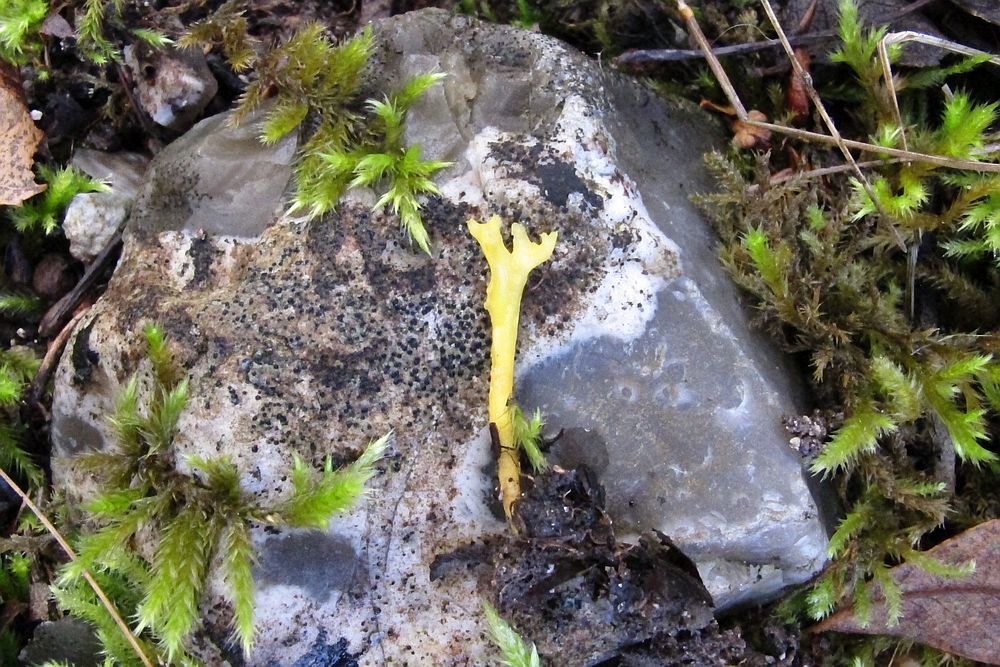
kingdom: Fungi
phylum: Basidiomycota
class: Agaricomycetes
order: Agaricales
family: Clavariaceae
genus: Clavulinopsis
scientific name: Clavulinopsis corniculata
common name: eng-køllesvamp
